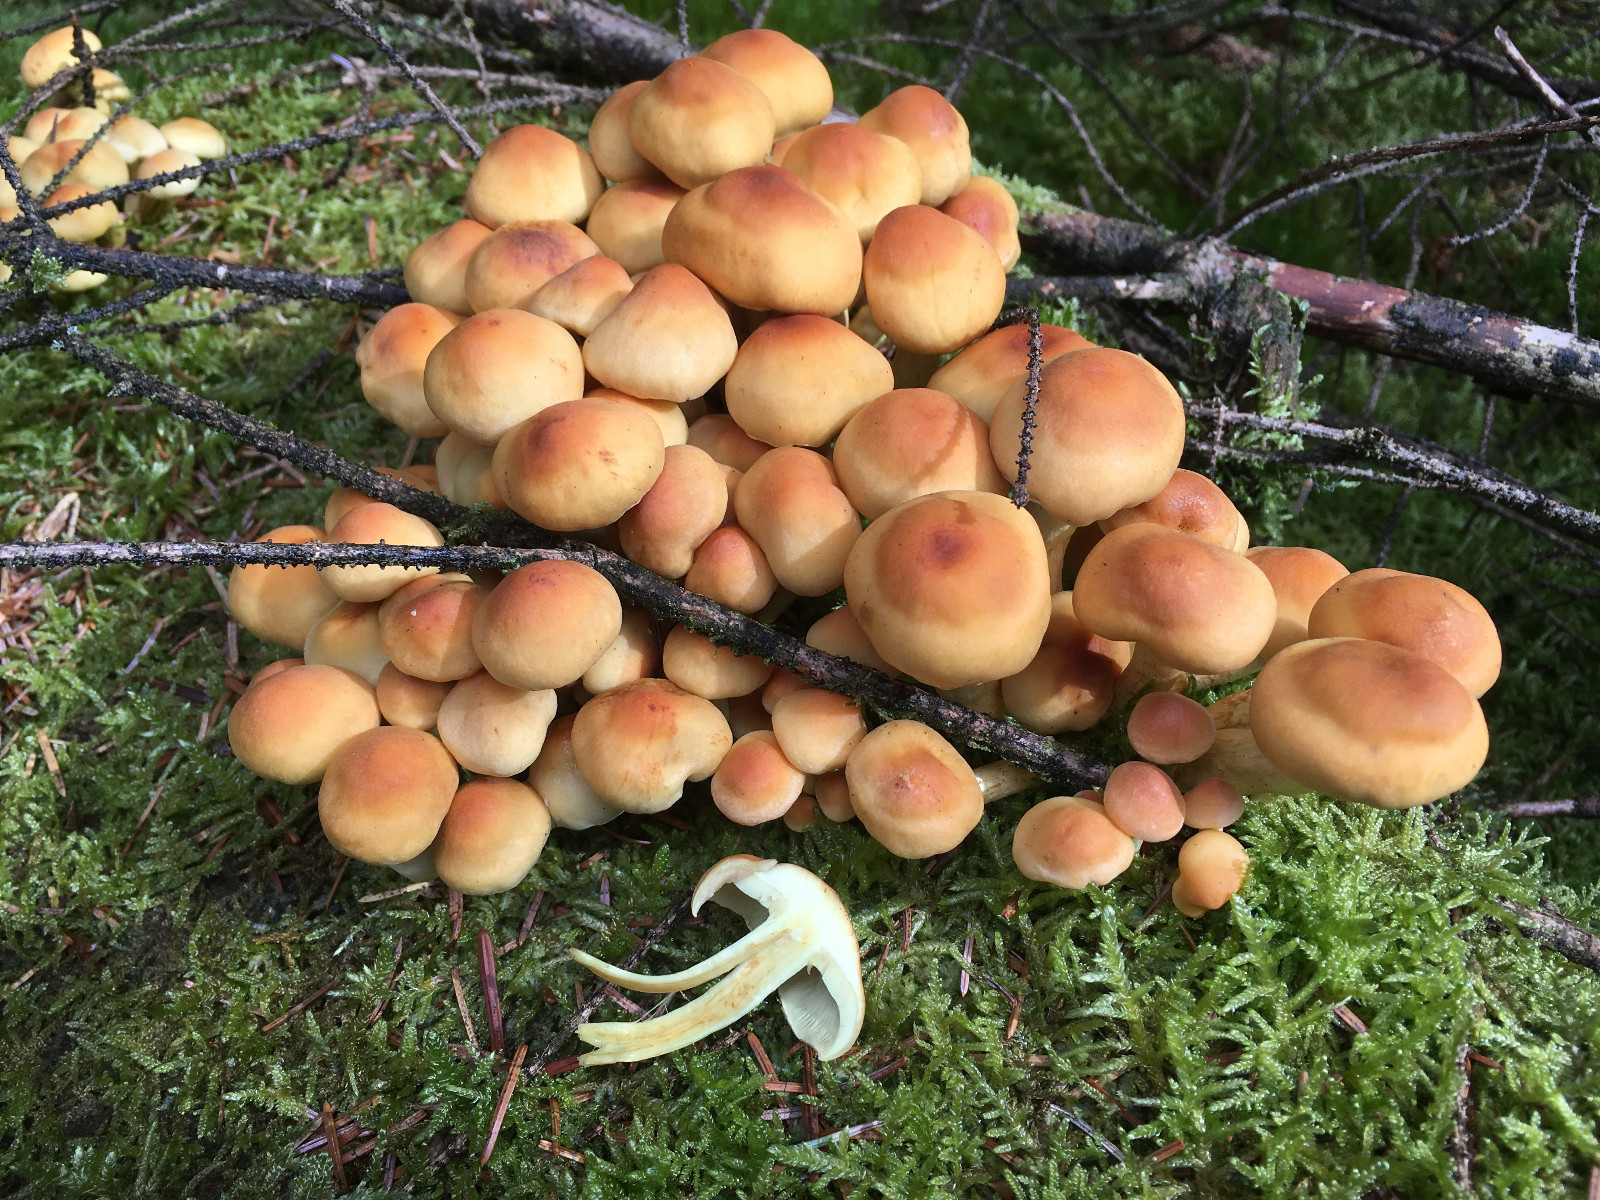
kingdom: Fungi
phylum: Basidiomycota
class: Agaricomycetes
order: Agaricales
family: Strophariaceae
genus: Hypholoma
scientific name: Hypholoma capnoides
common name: gran-svovlhat
